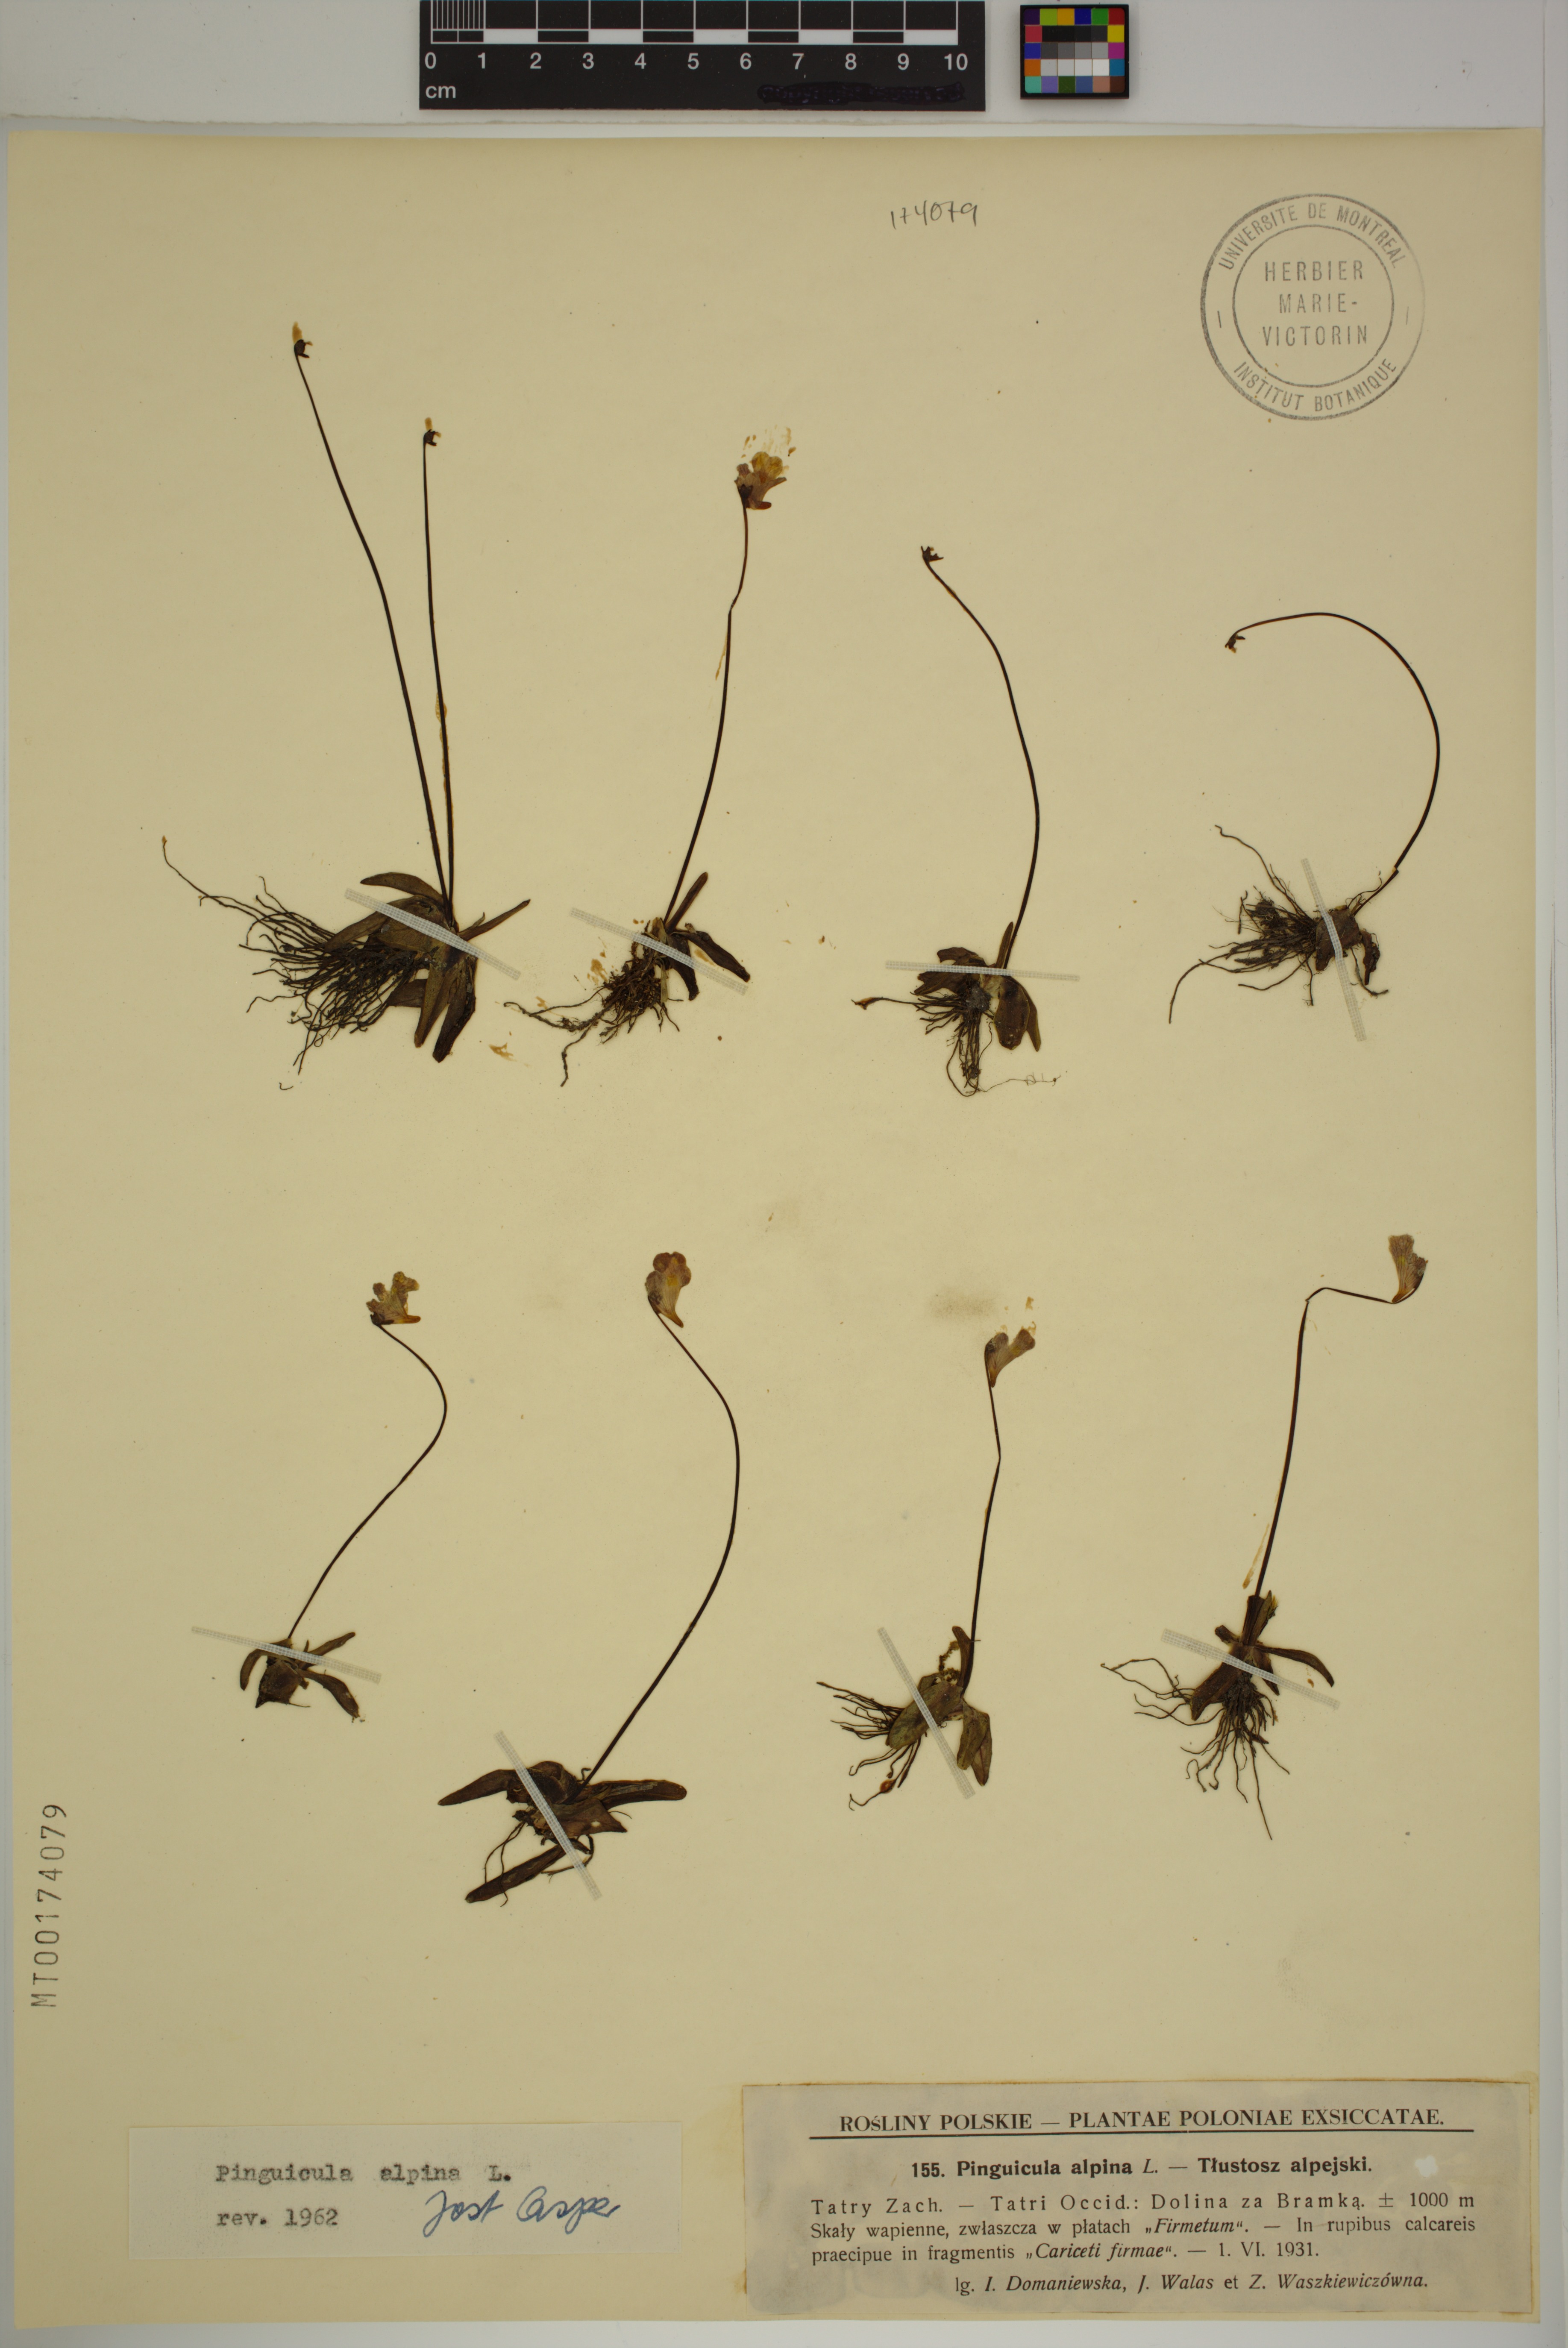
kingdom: Plantae
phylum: Tracheophyta
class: Magnoliopsida
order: Lamiales
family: Lentibulariaceae
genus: Pinguicula
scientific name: Pinguicula alpina
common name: Alpine butterwort
